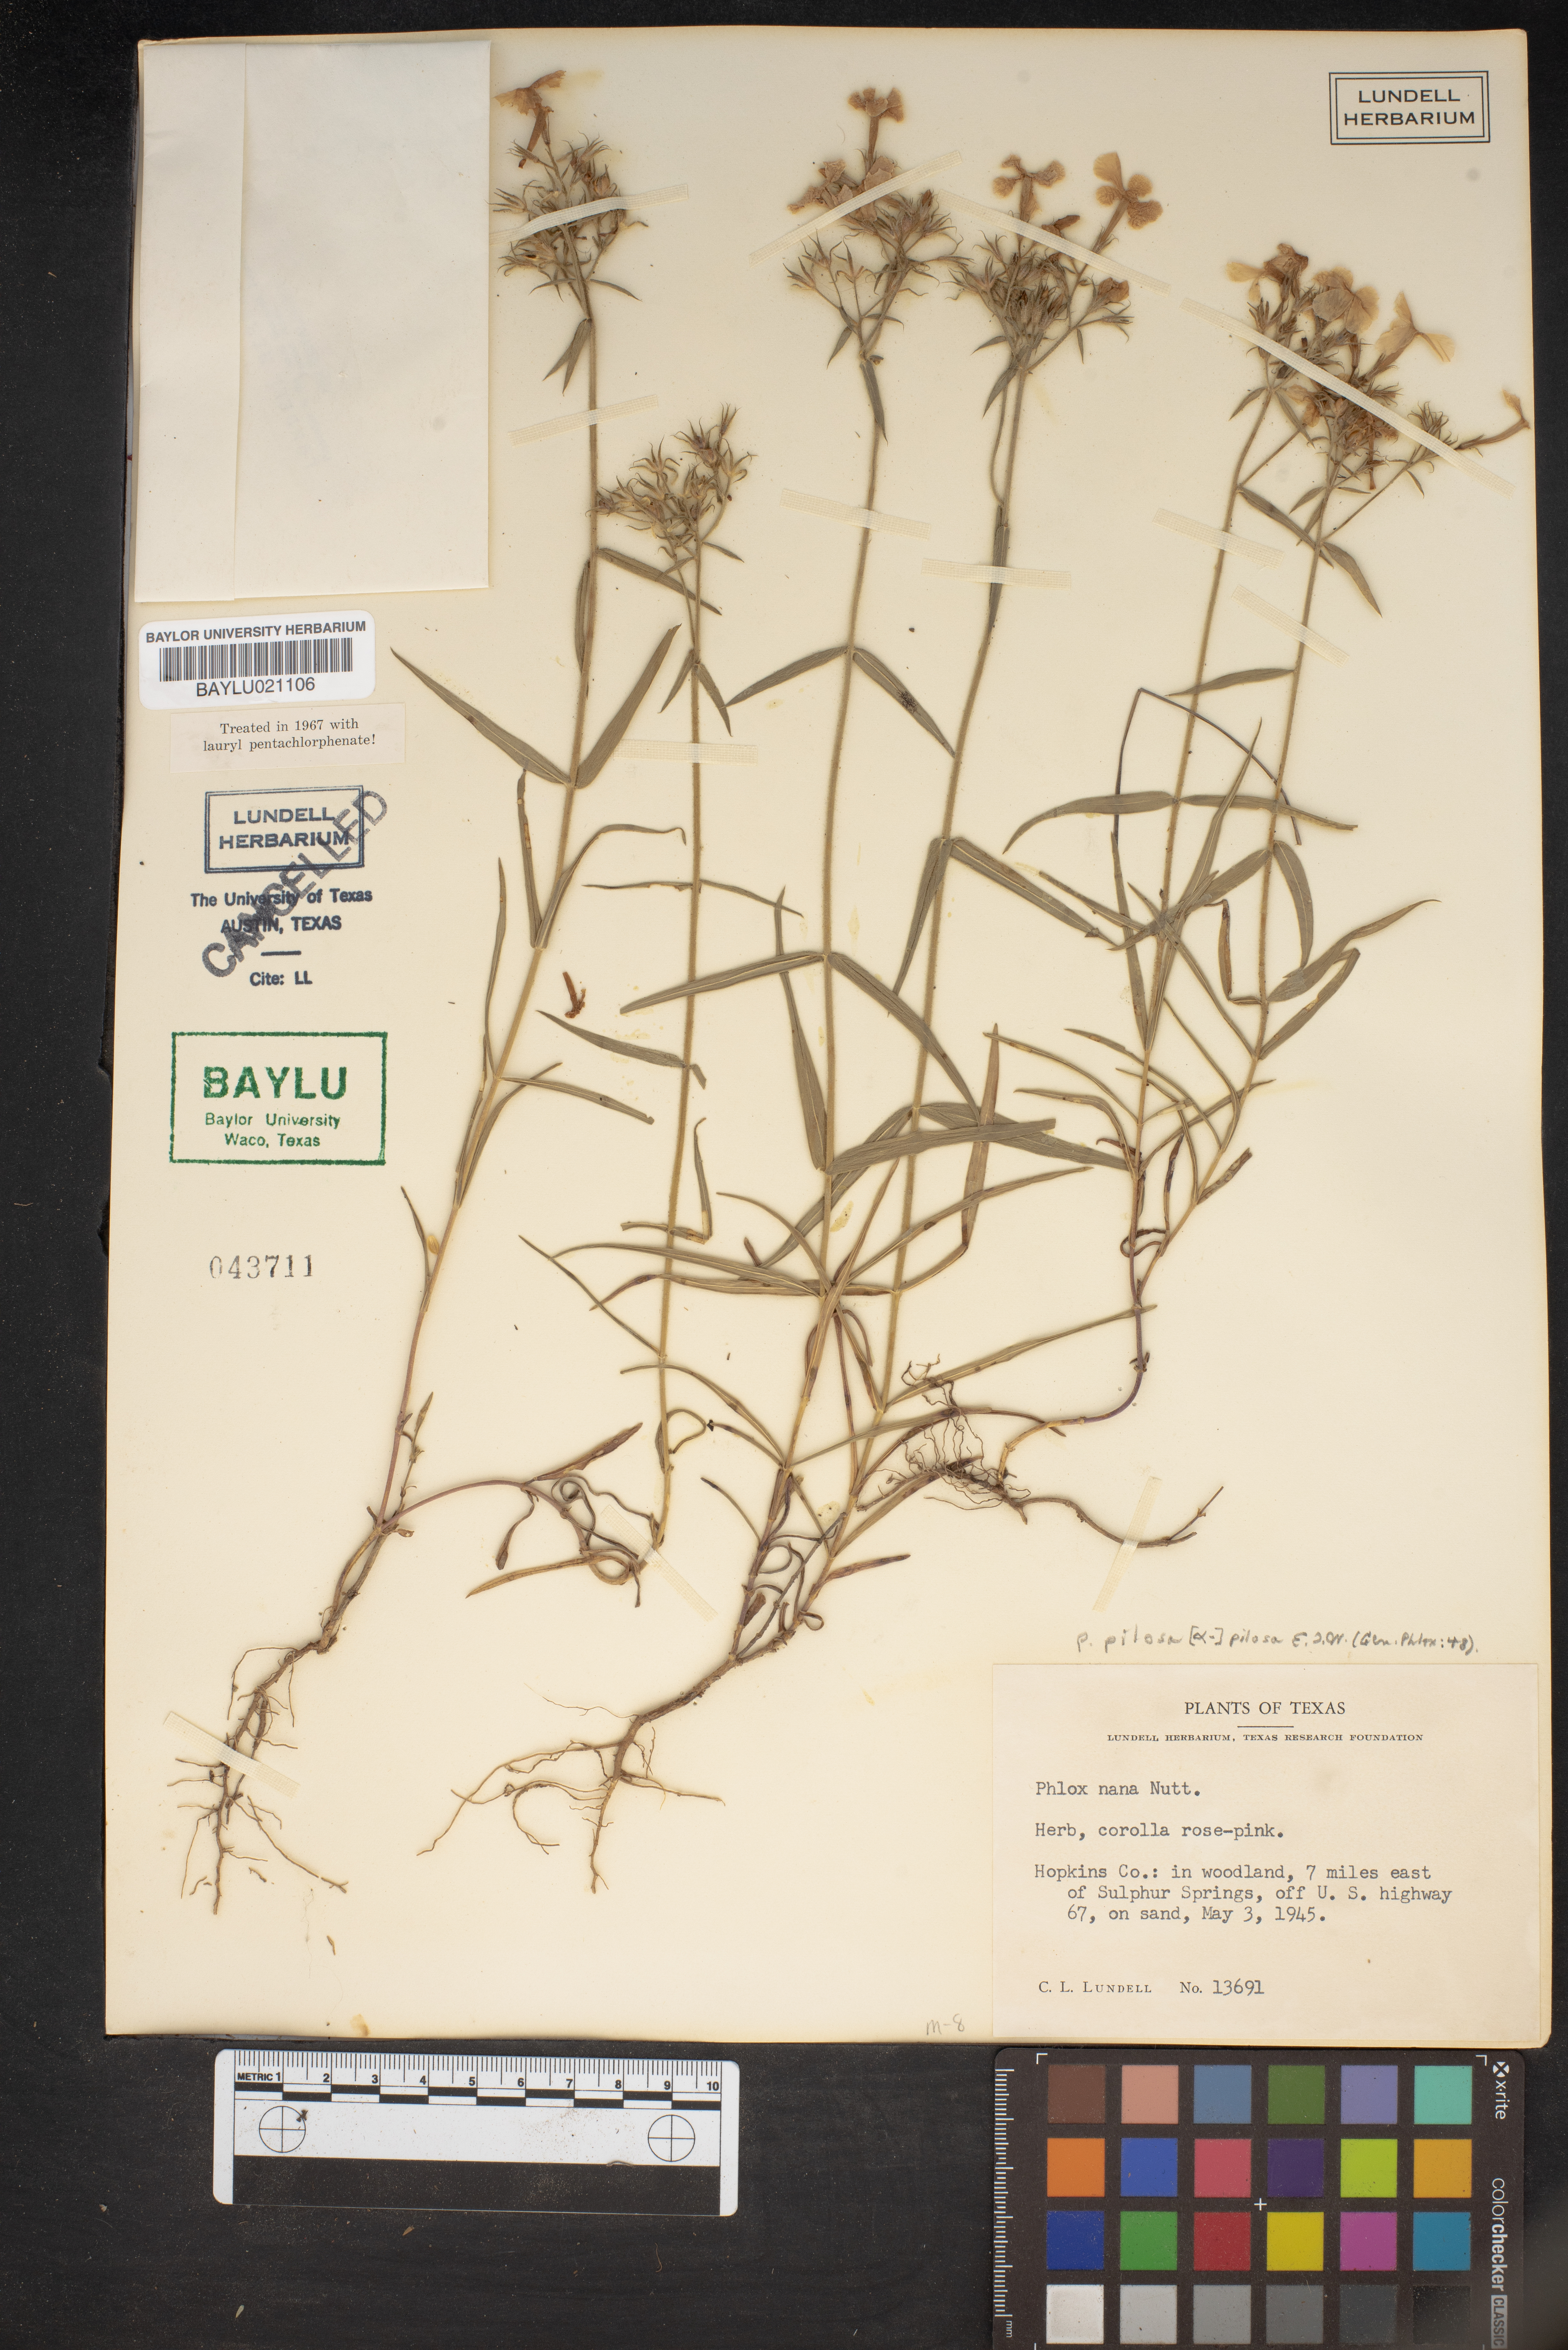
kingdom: Plantae
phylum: Tracheophyta
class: Magnoliopsida
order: Ericales
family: Polemoniaceae
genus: Phlox
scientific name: Phlox nana
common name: Santa fe phlox
